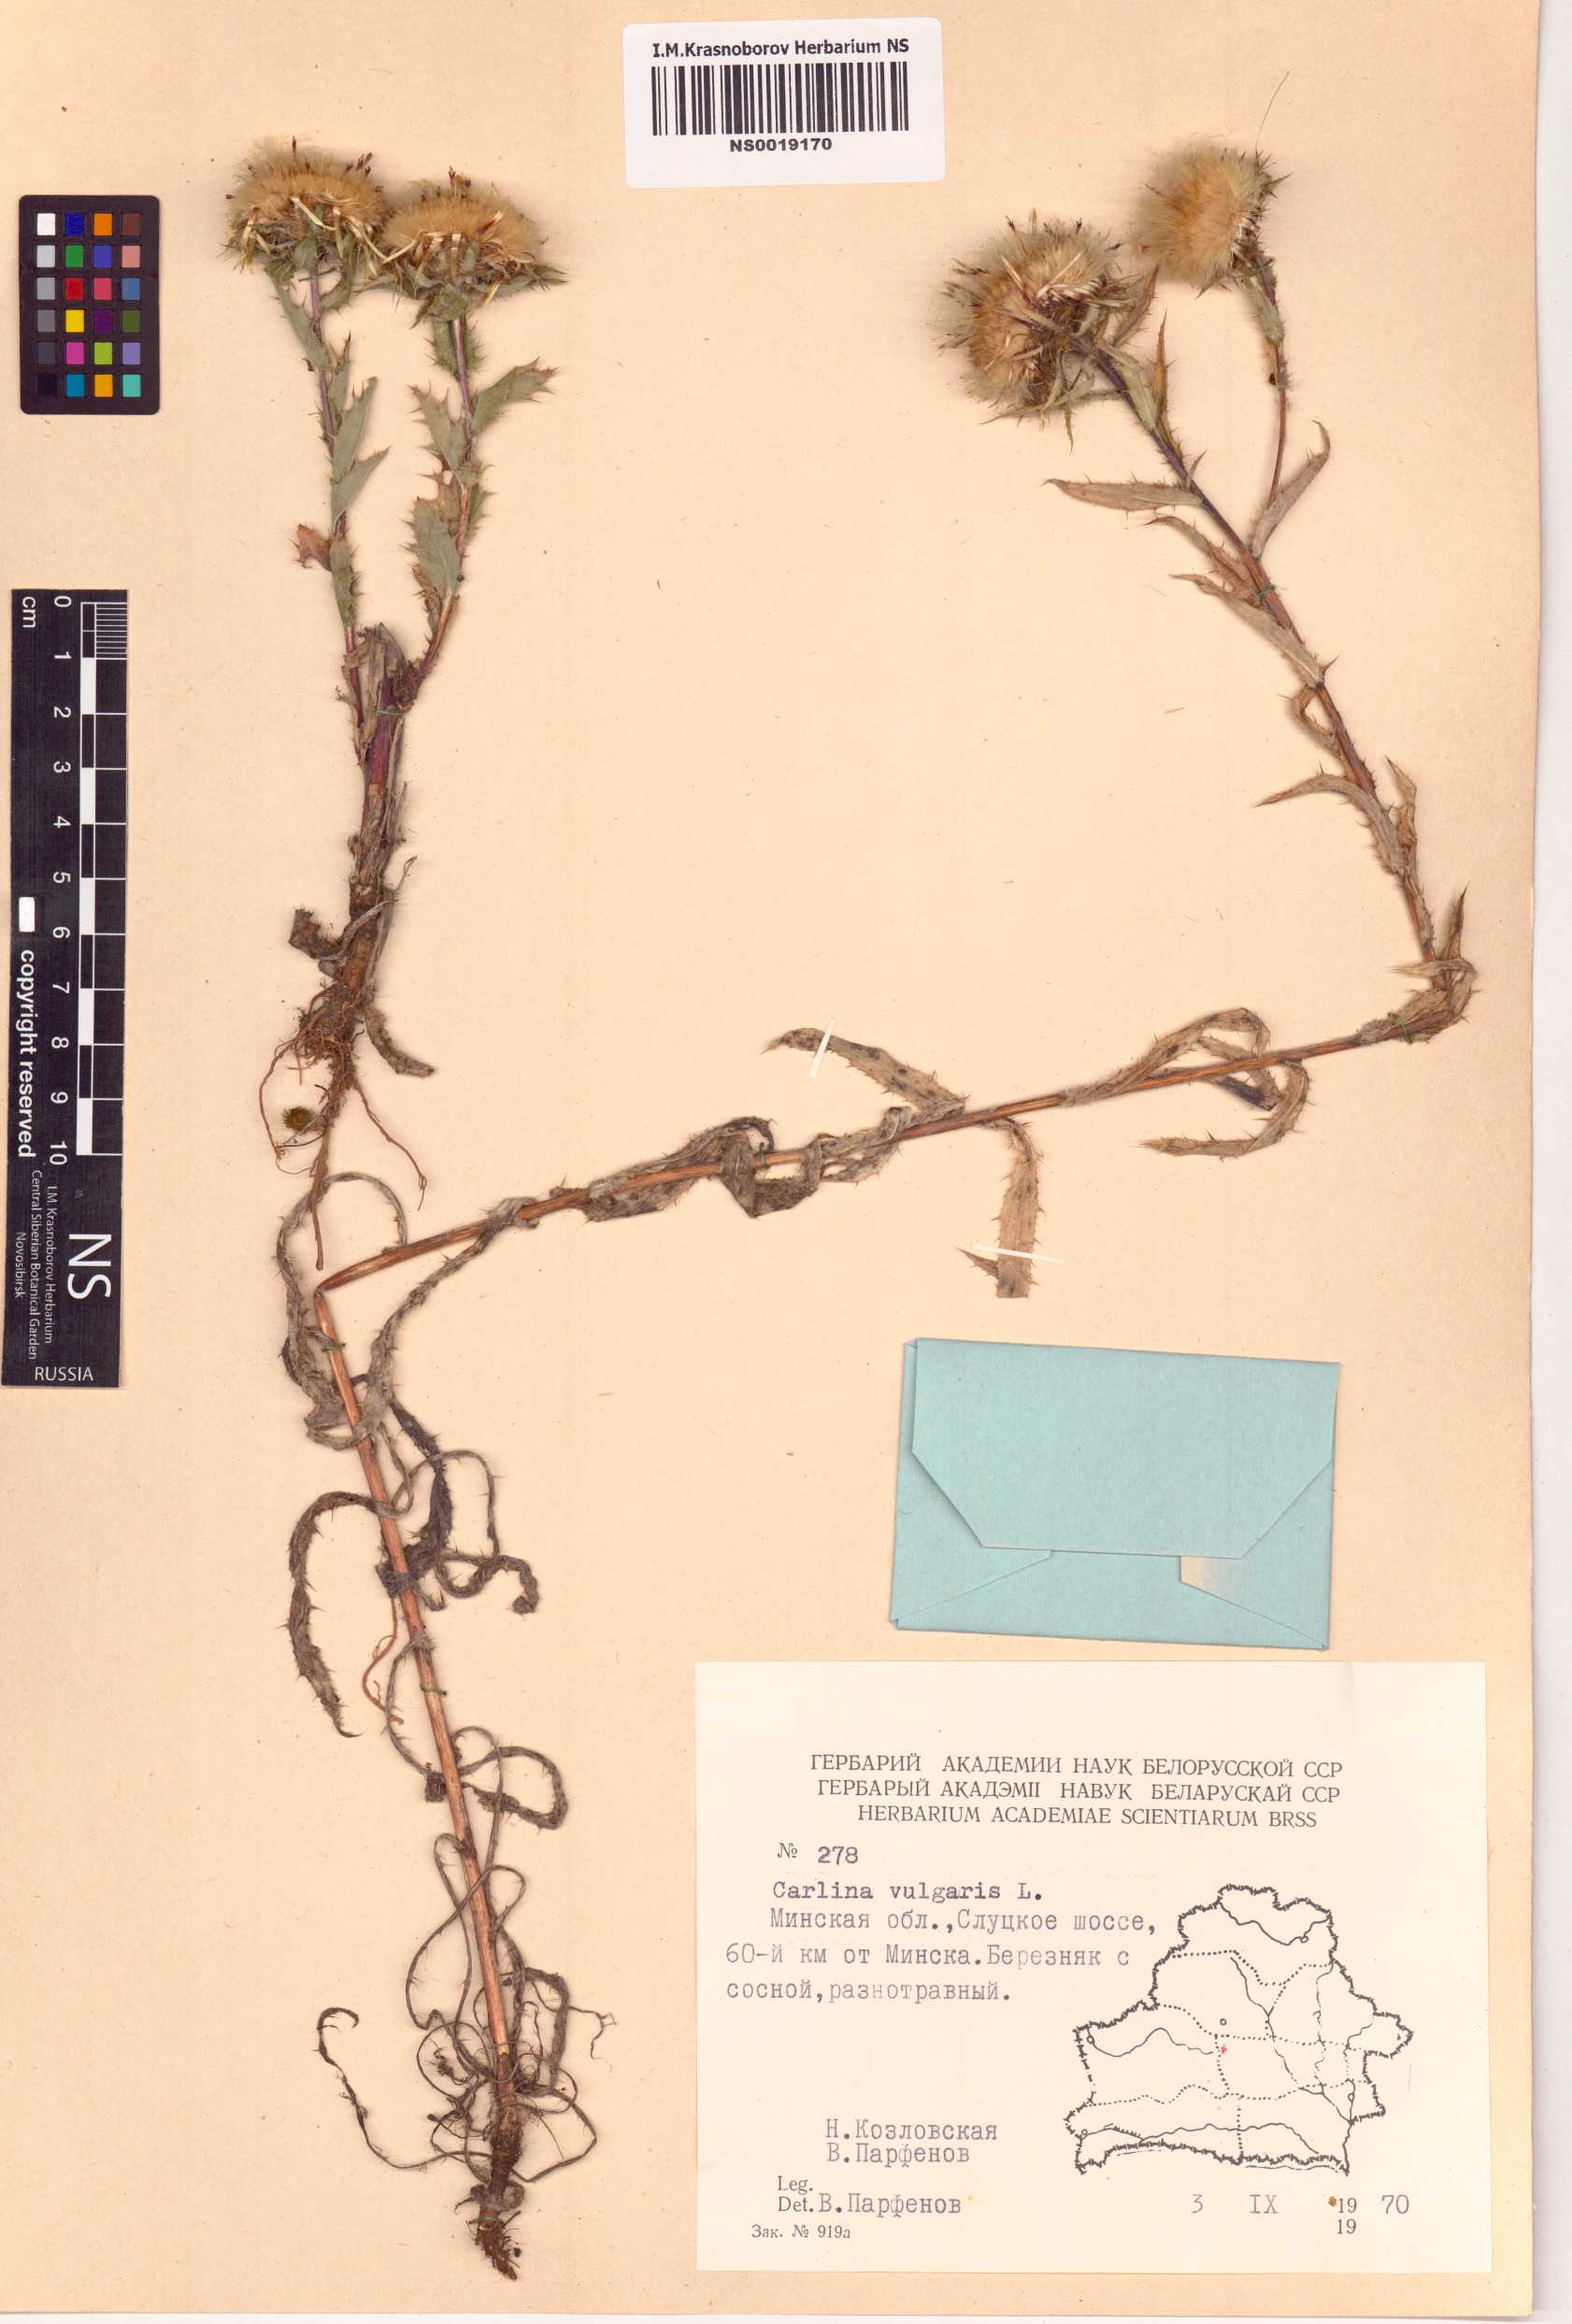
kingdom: Plantae
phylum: Tracheophyta
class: Magnoliopsida
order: Asterales
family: Asteraceae
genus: Carlina
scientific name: Carlina vulgaris
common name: Carline thistle
